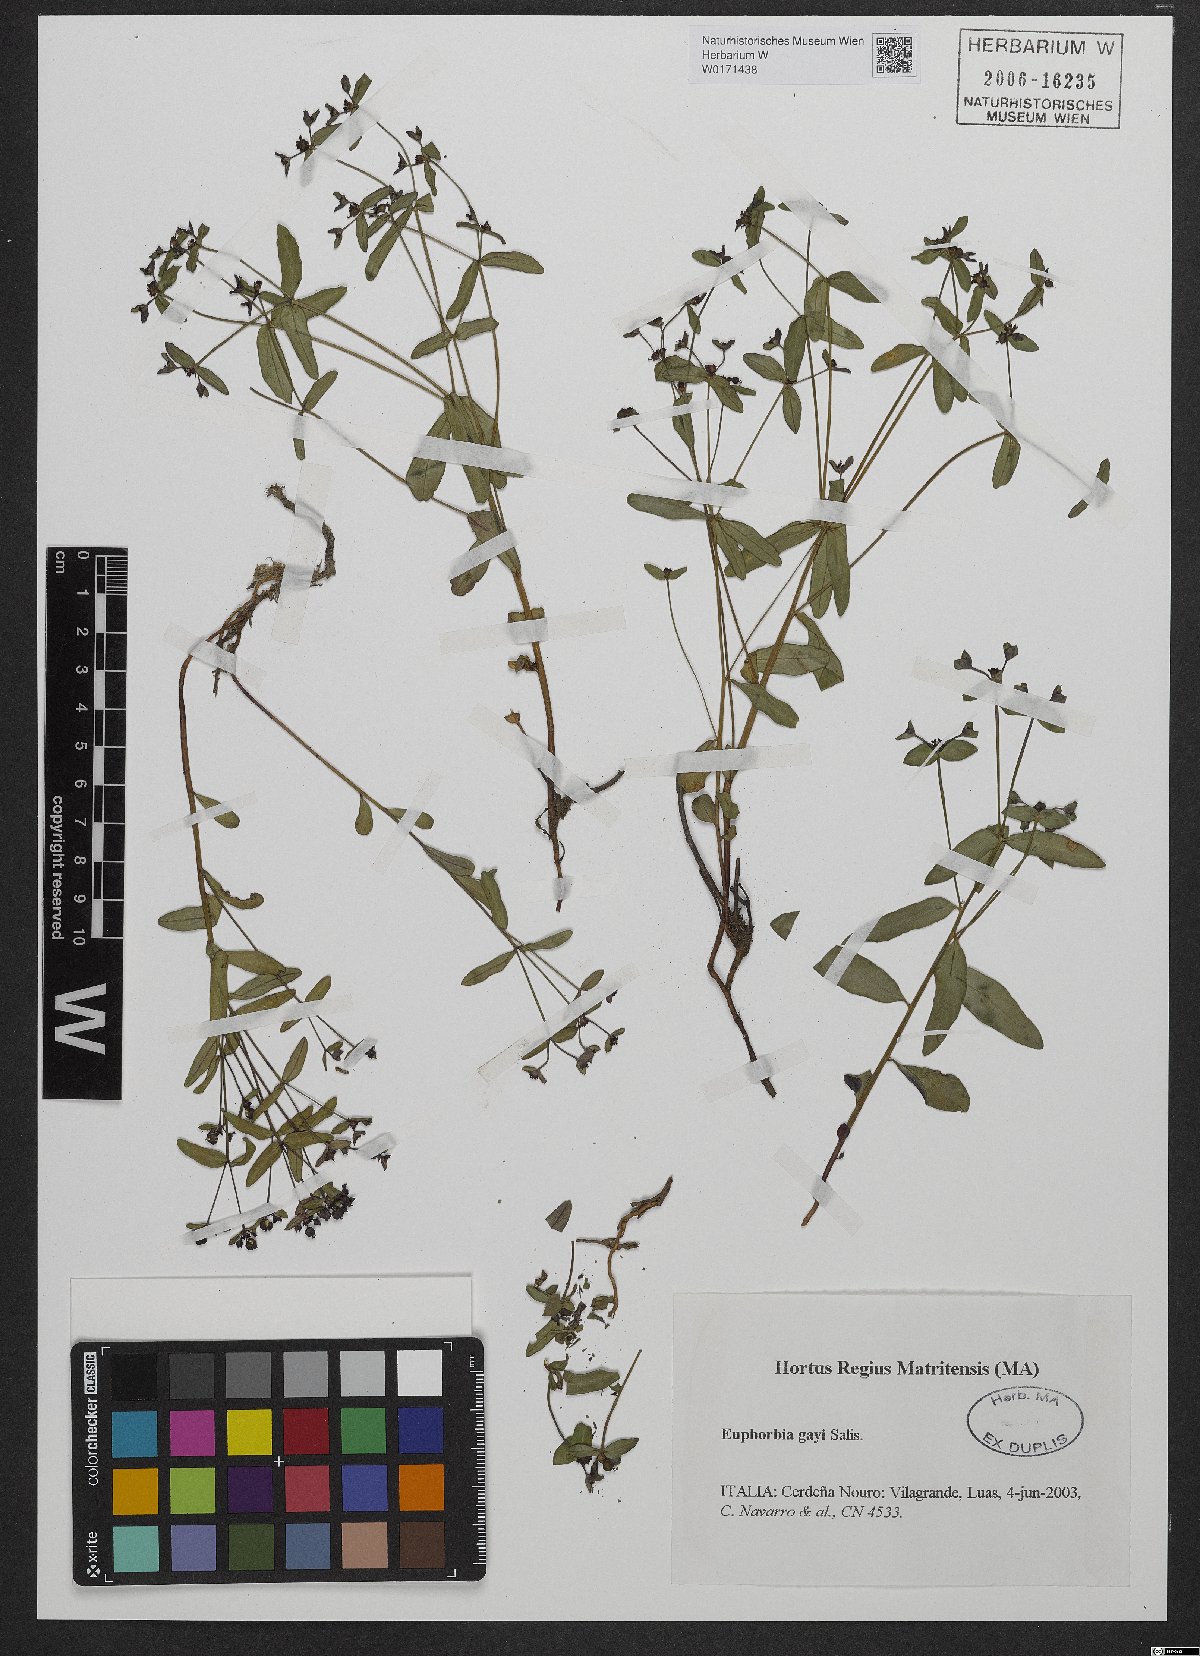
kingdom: Plantae
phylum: Tracheophyta
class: Magnoliopsida
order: Malpighiales
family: Euphorbiaceae
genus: Euphorbia
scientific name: Euphorbia gayi
